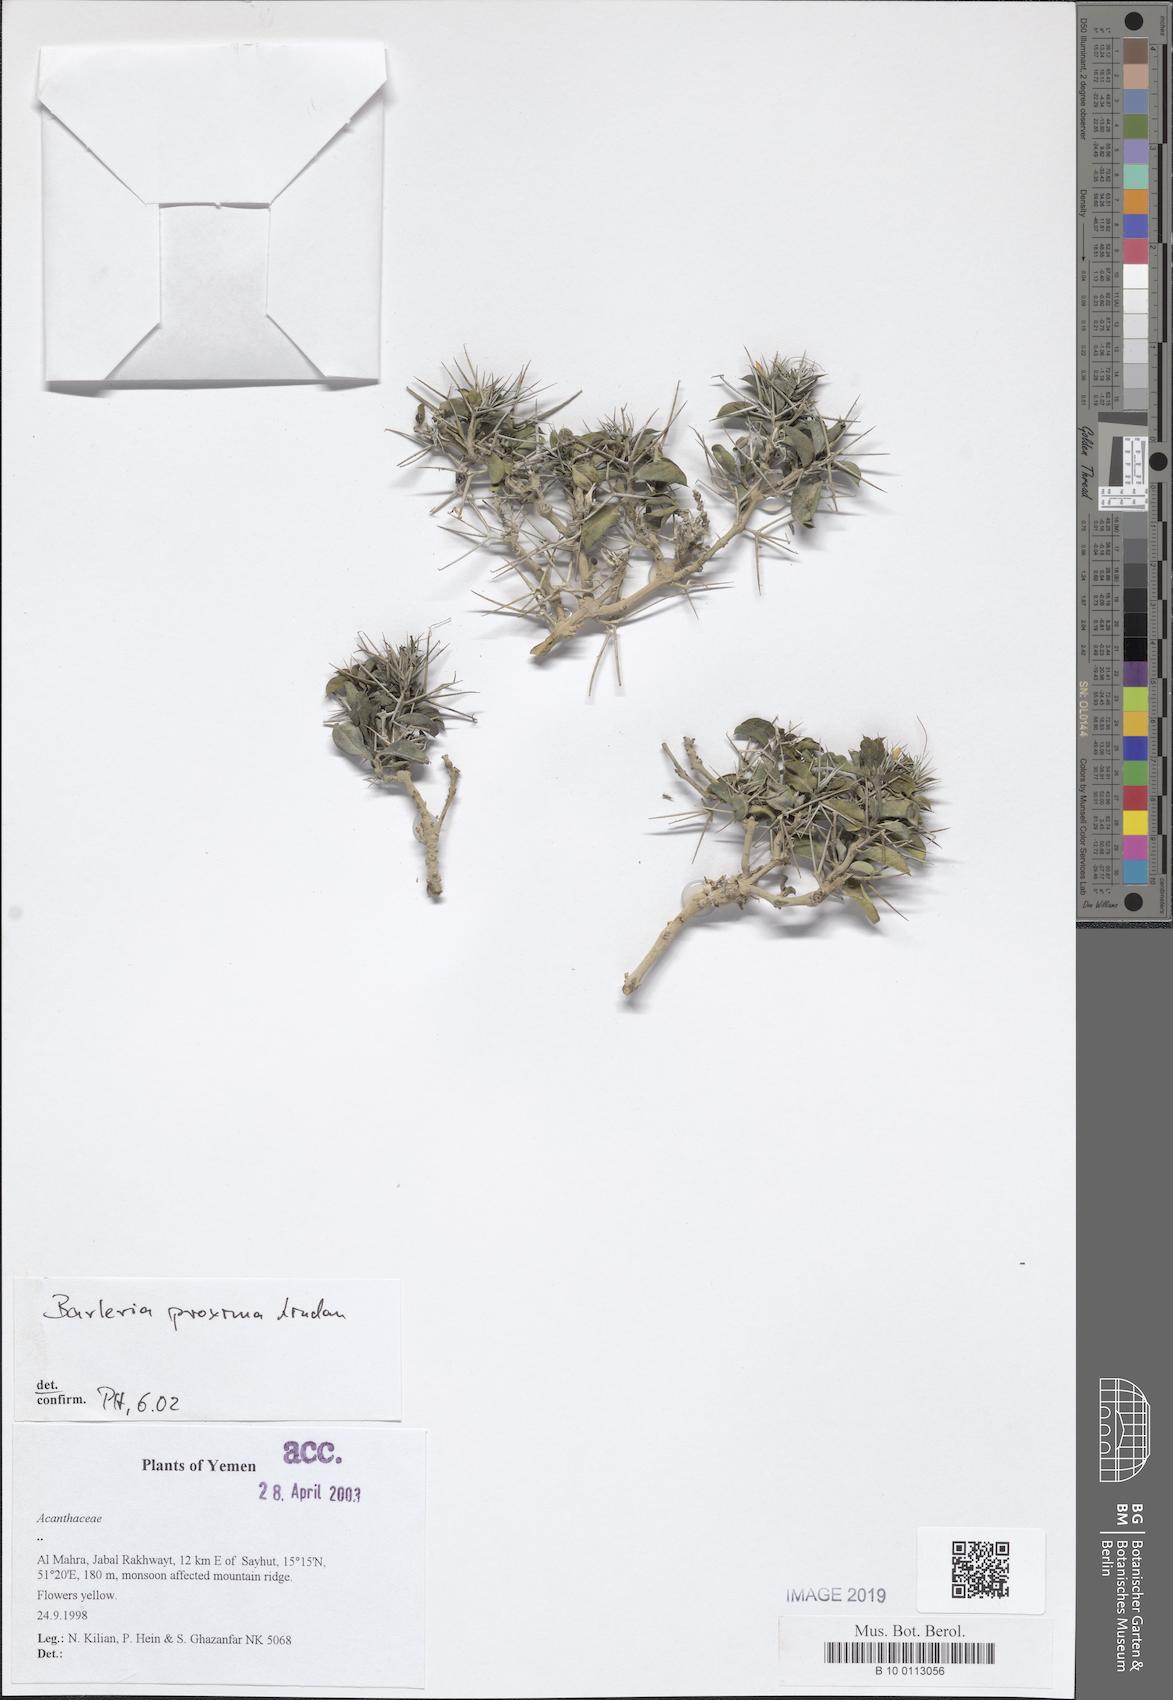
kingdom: Plantae
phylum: Tracheophyta
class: Magnoliopsida
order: Lamiales
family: Acanthaceae
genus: Barleria
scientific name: Barleria proxima
